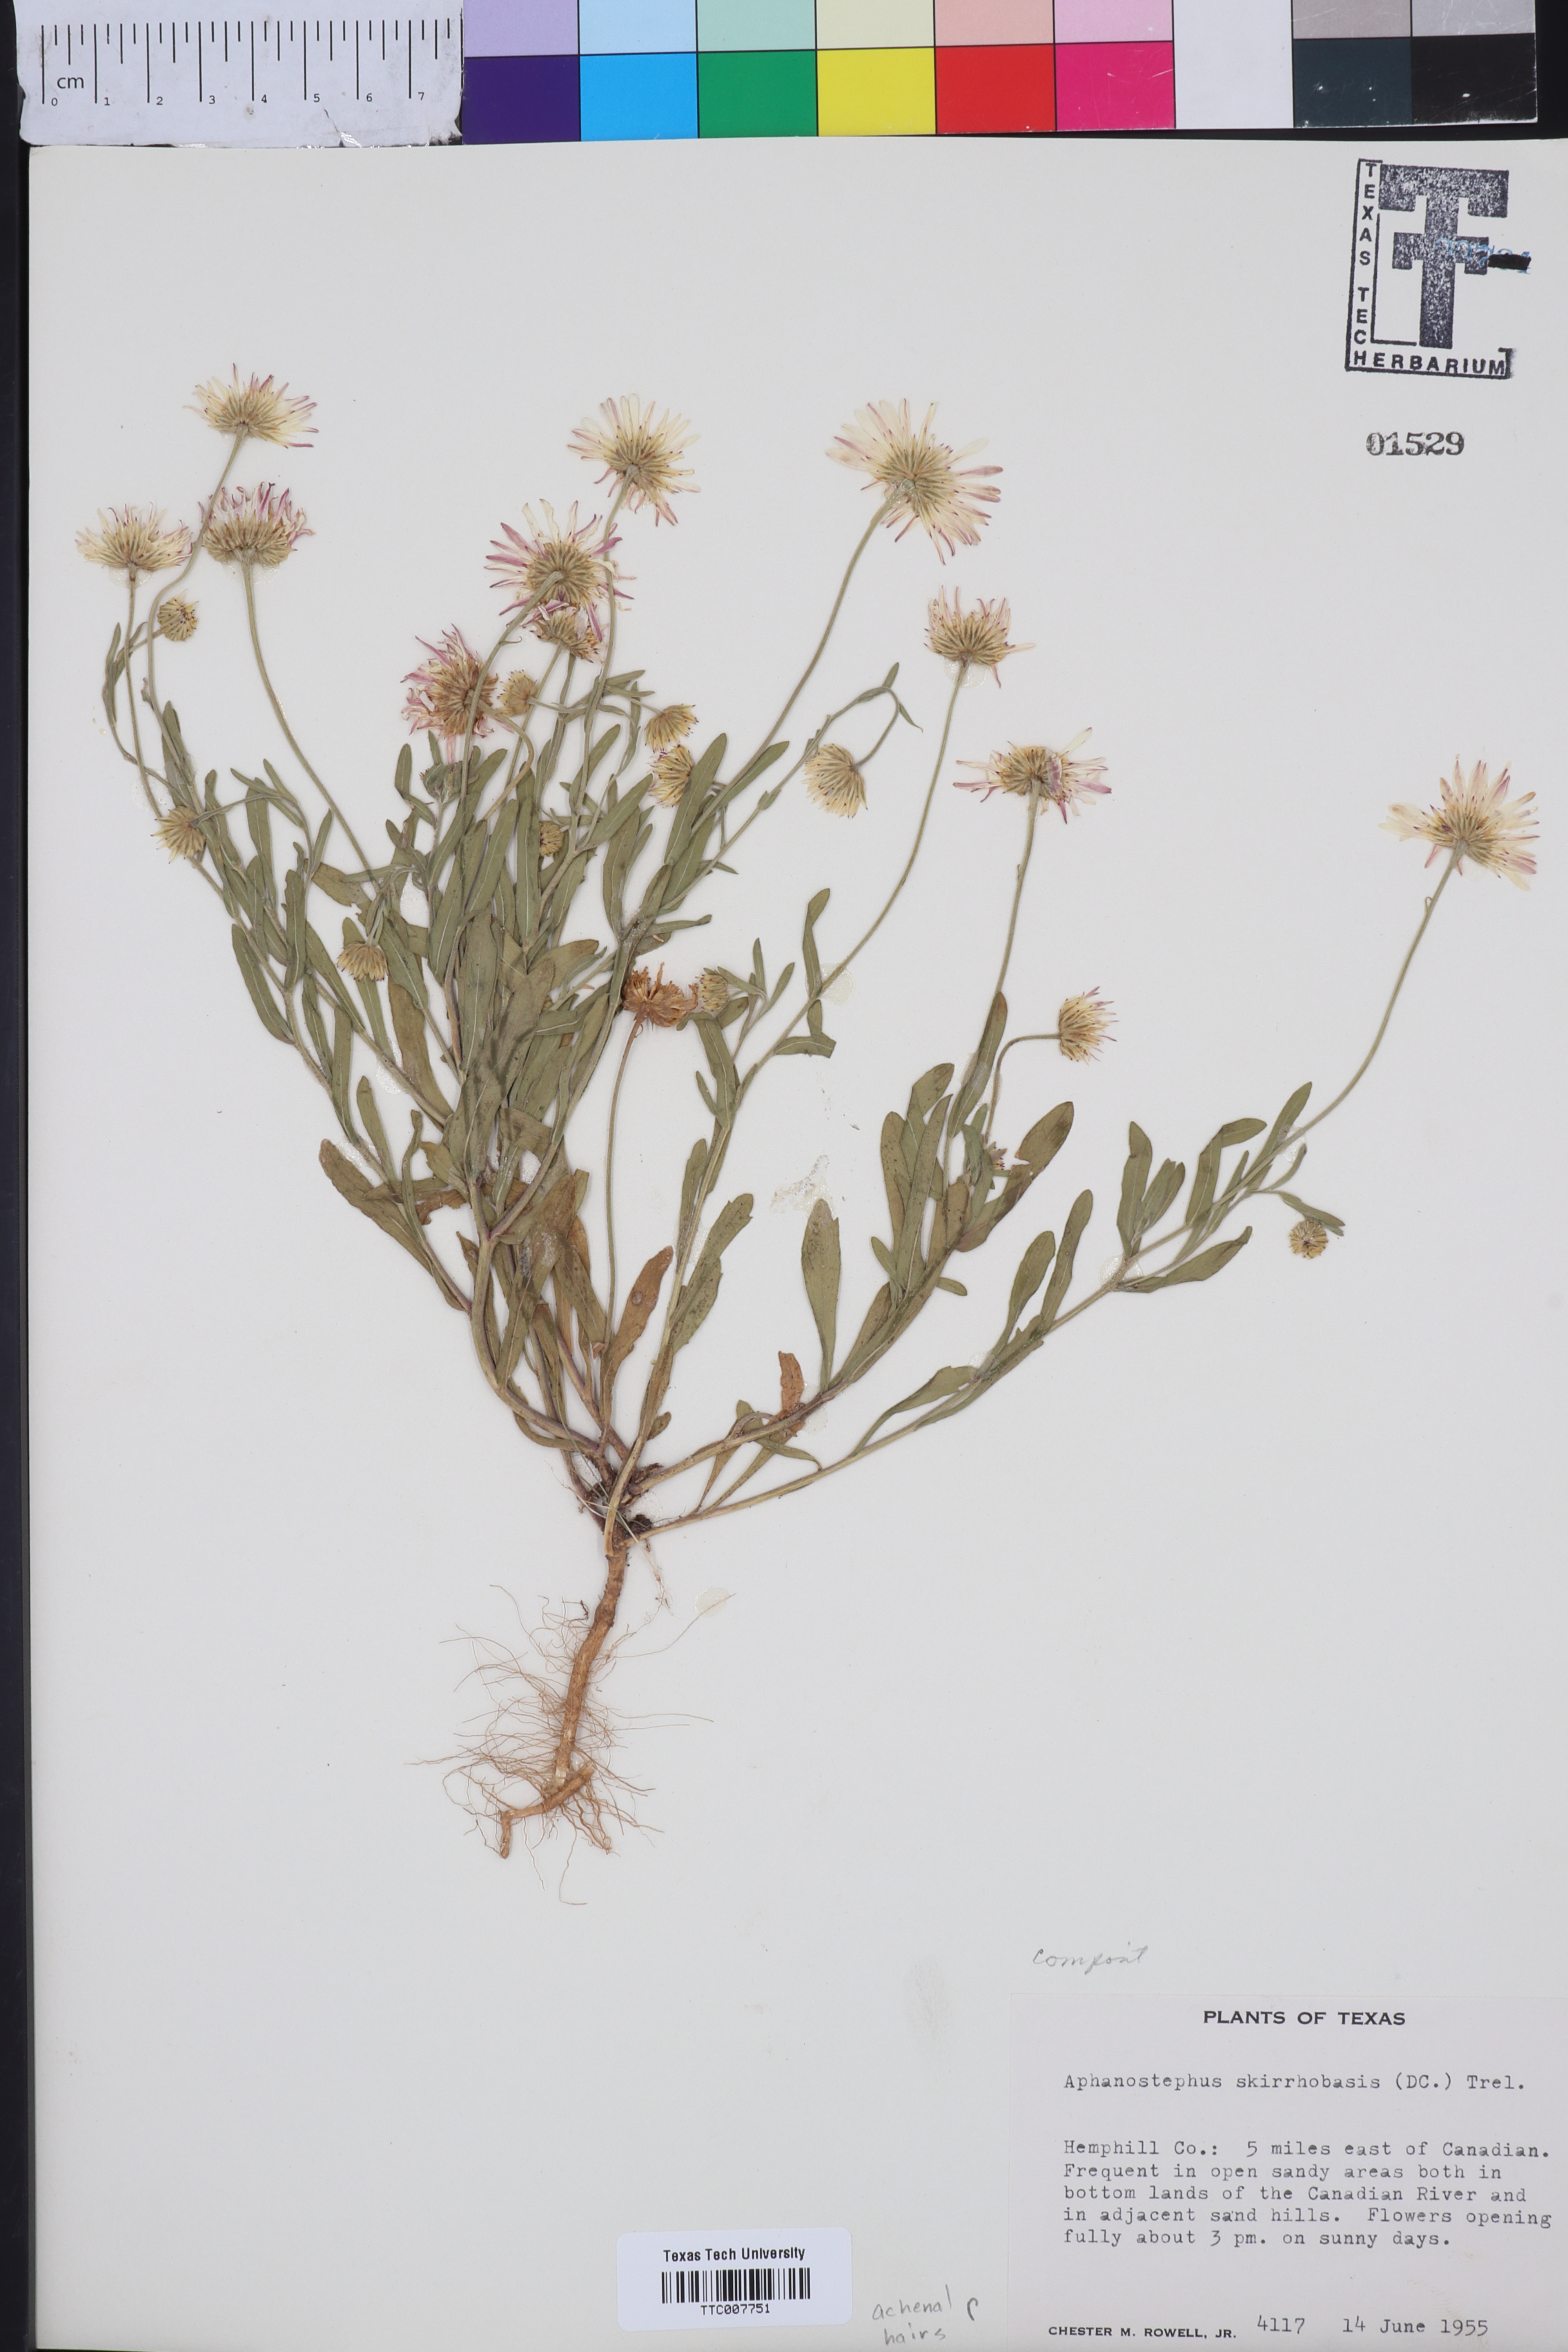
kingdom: Plantae
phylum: Tracheophyta
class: Magnoliopsida
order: Asterales
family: Asteraceae
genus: Aphanostephus
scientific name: Aphanostephus skirrhobasis
